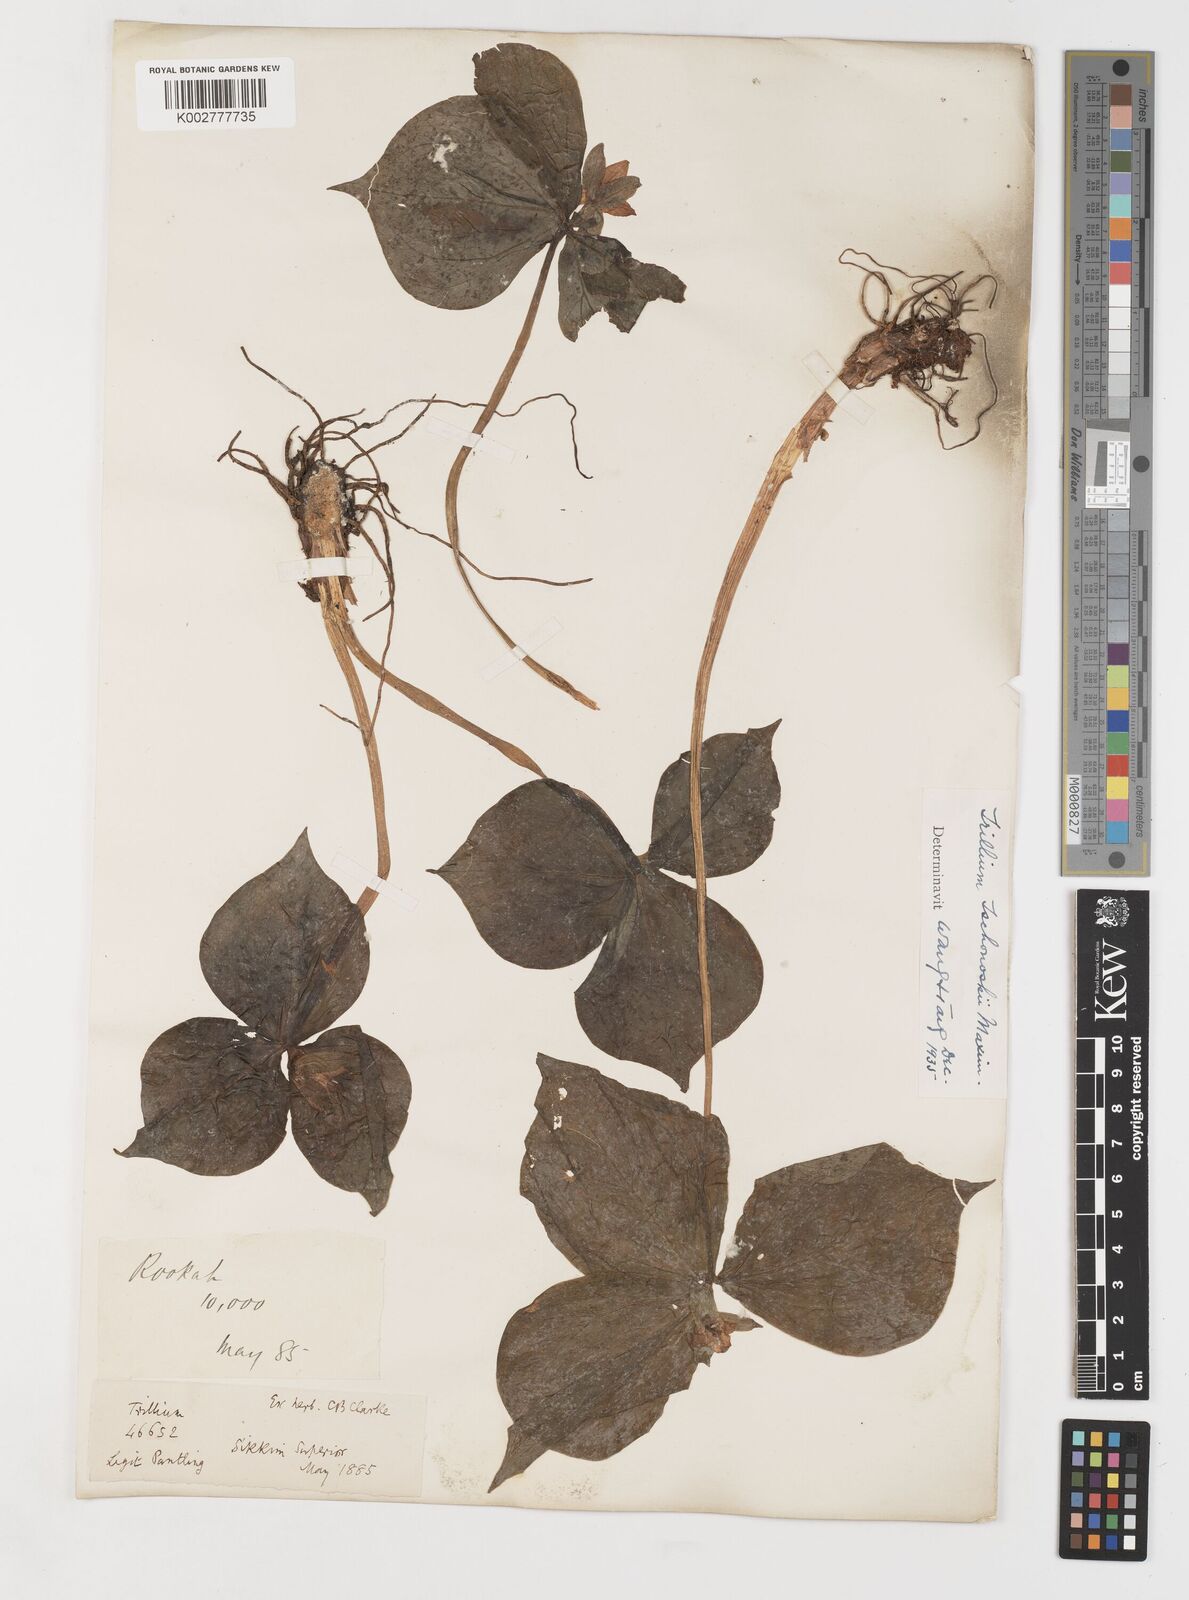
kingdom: Plantae
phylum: Tracheophyta
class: Liliopsida
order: Liliales
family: Melanthiaceae
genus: Trillium
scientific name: Trillium tschonoskii
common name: A pearl on head
